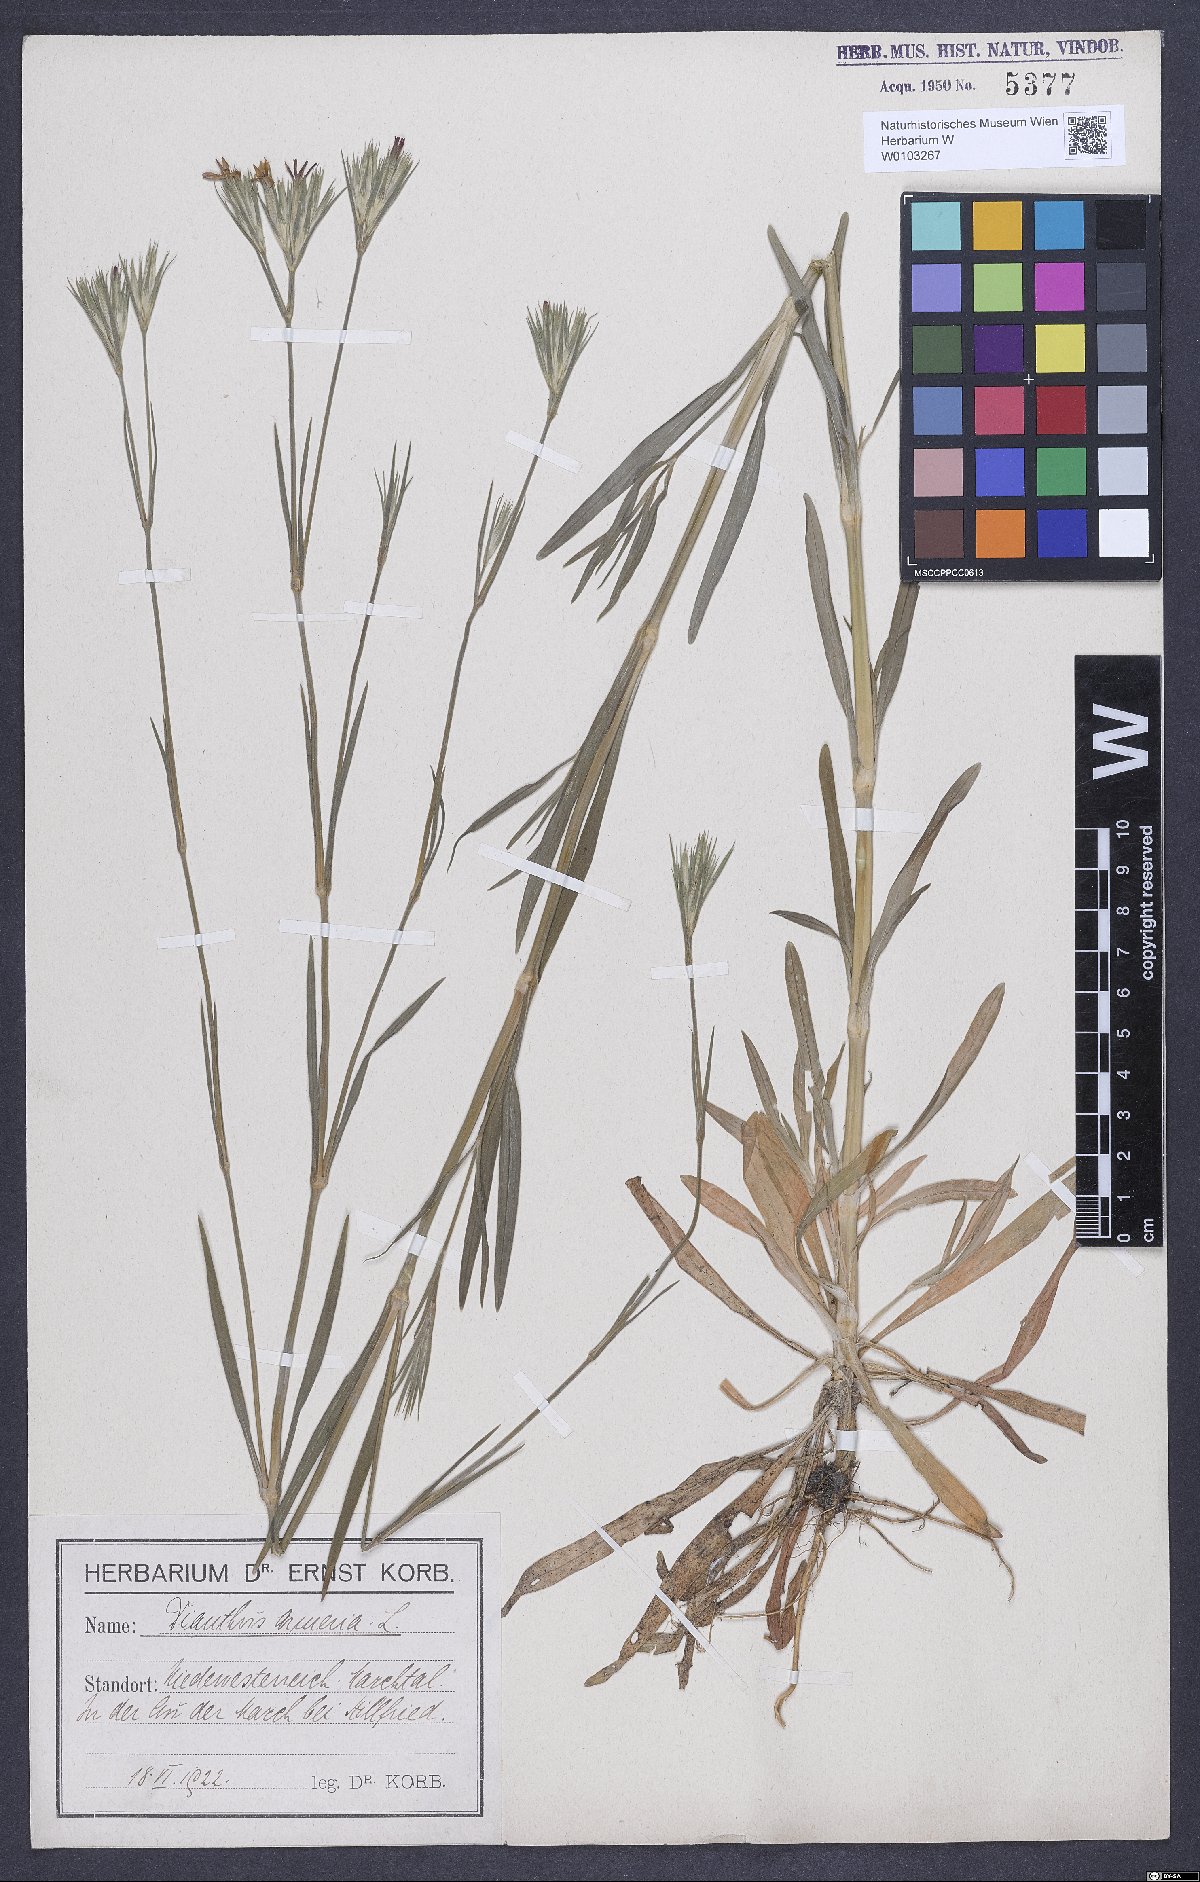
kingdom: Plantae
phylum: Tracheophyta
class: Magnoliopsida
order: Caryophyllales
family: Caryophyllaceae
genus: Dianthus
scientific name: Dianthus armeria
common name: Deptford pink
